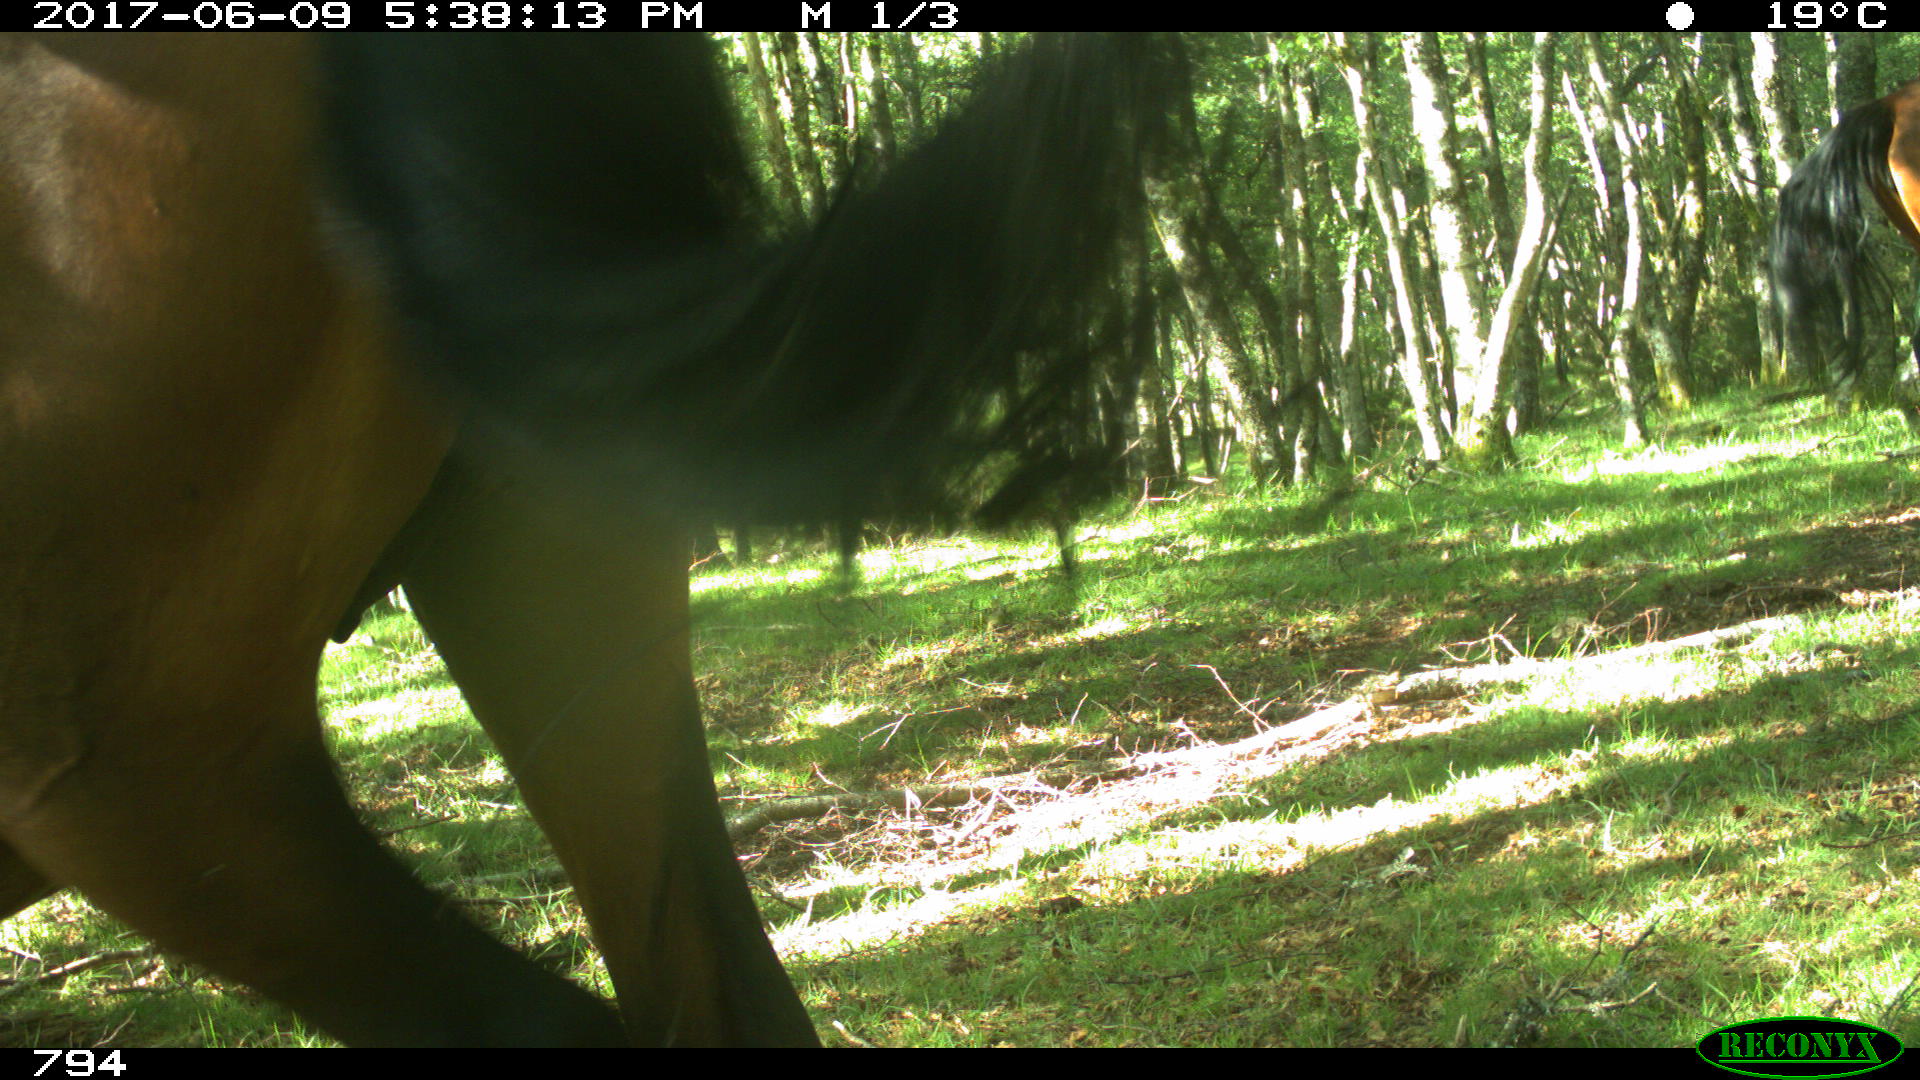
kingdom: Animalia
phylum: Chordata
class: Mammalia
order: Perissodactyla
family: Equidae
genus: Equus
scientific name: Equus caballus
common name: Horse
